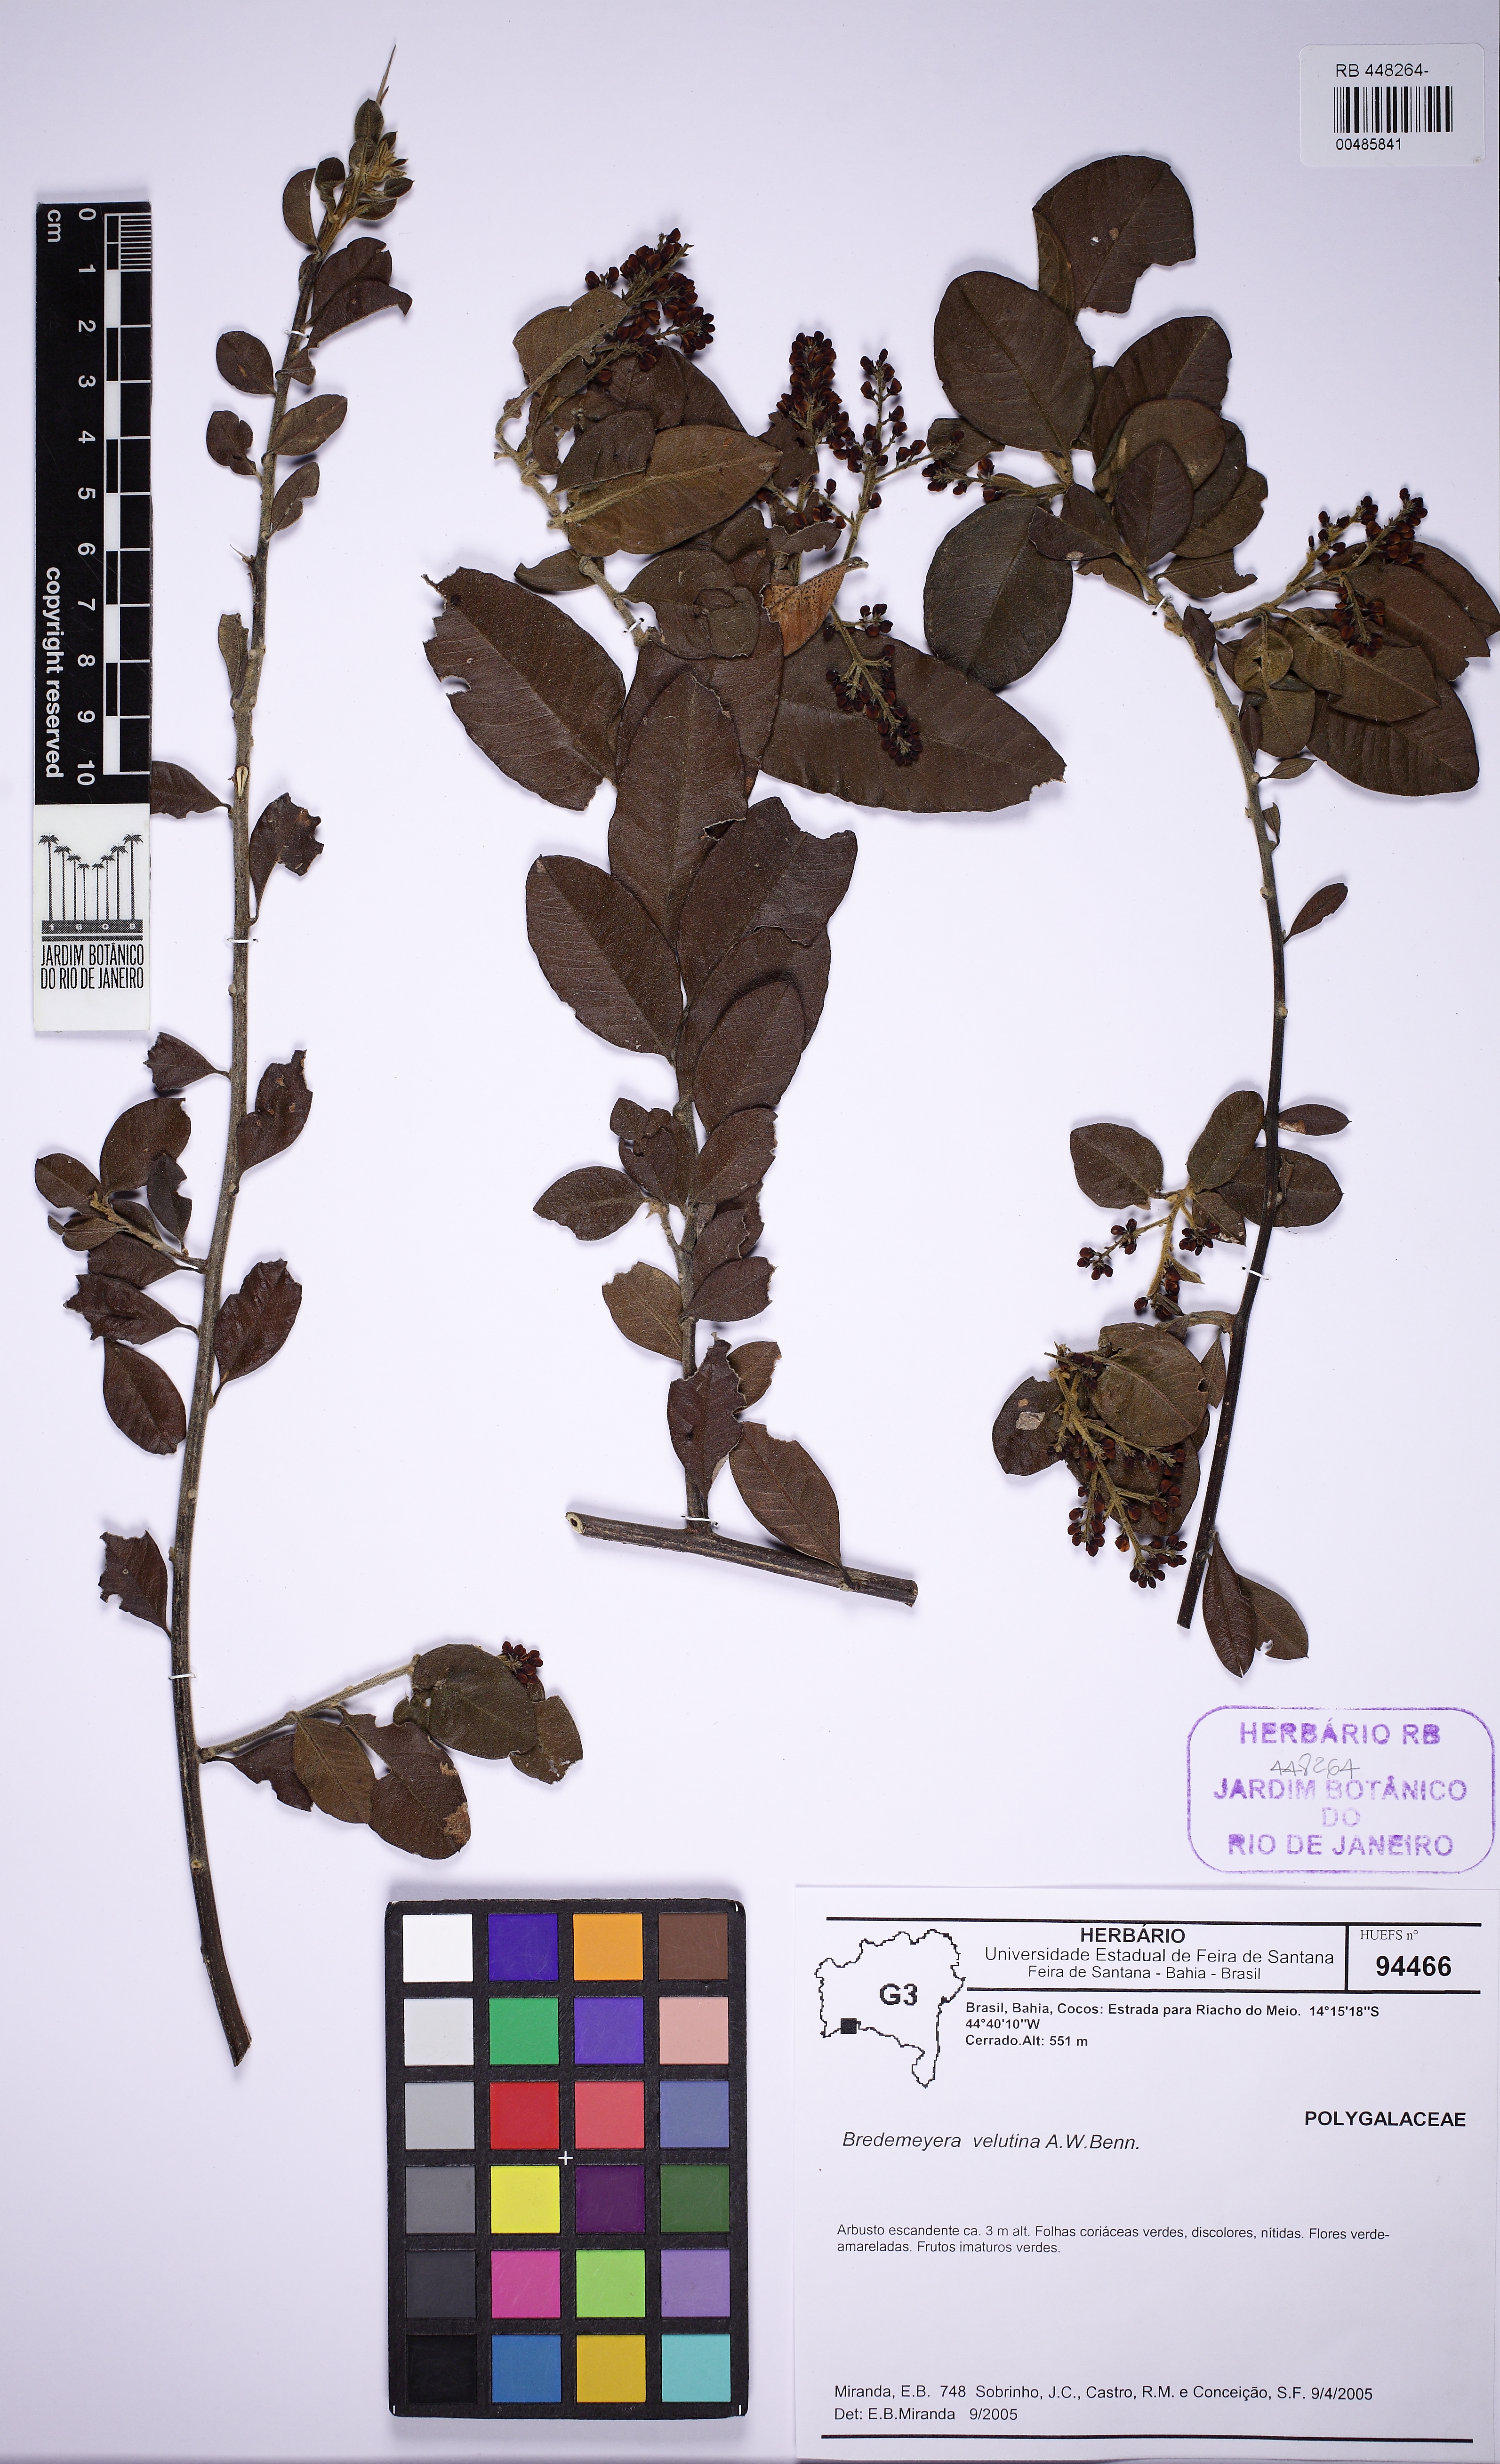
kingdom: Plantae
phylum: Tracheophyta
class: Magnoliopsida
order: Fabales
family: Polygalaceae
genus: Bredemeyera
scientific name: Bredemeyera martiana
